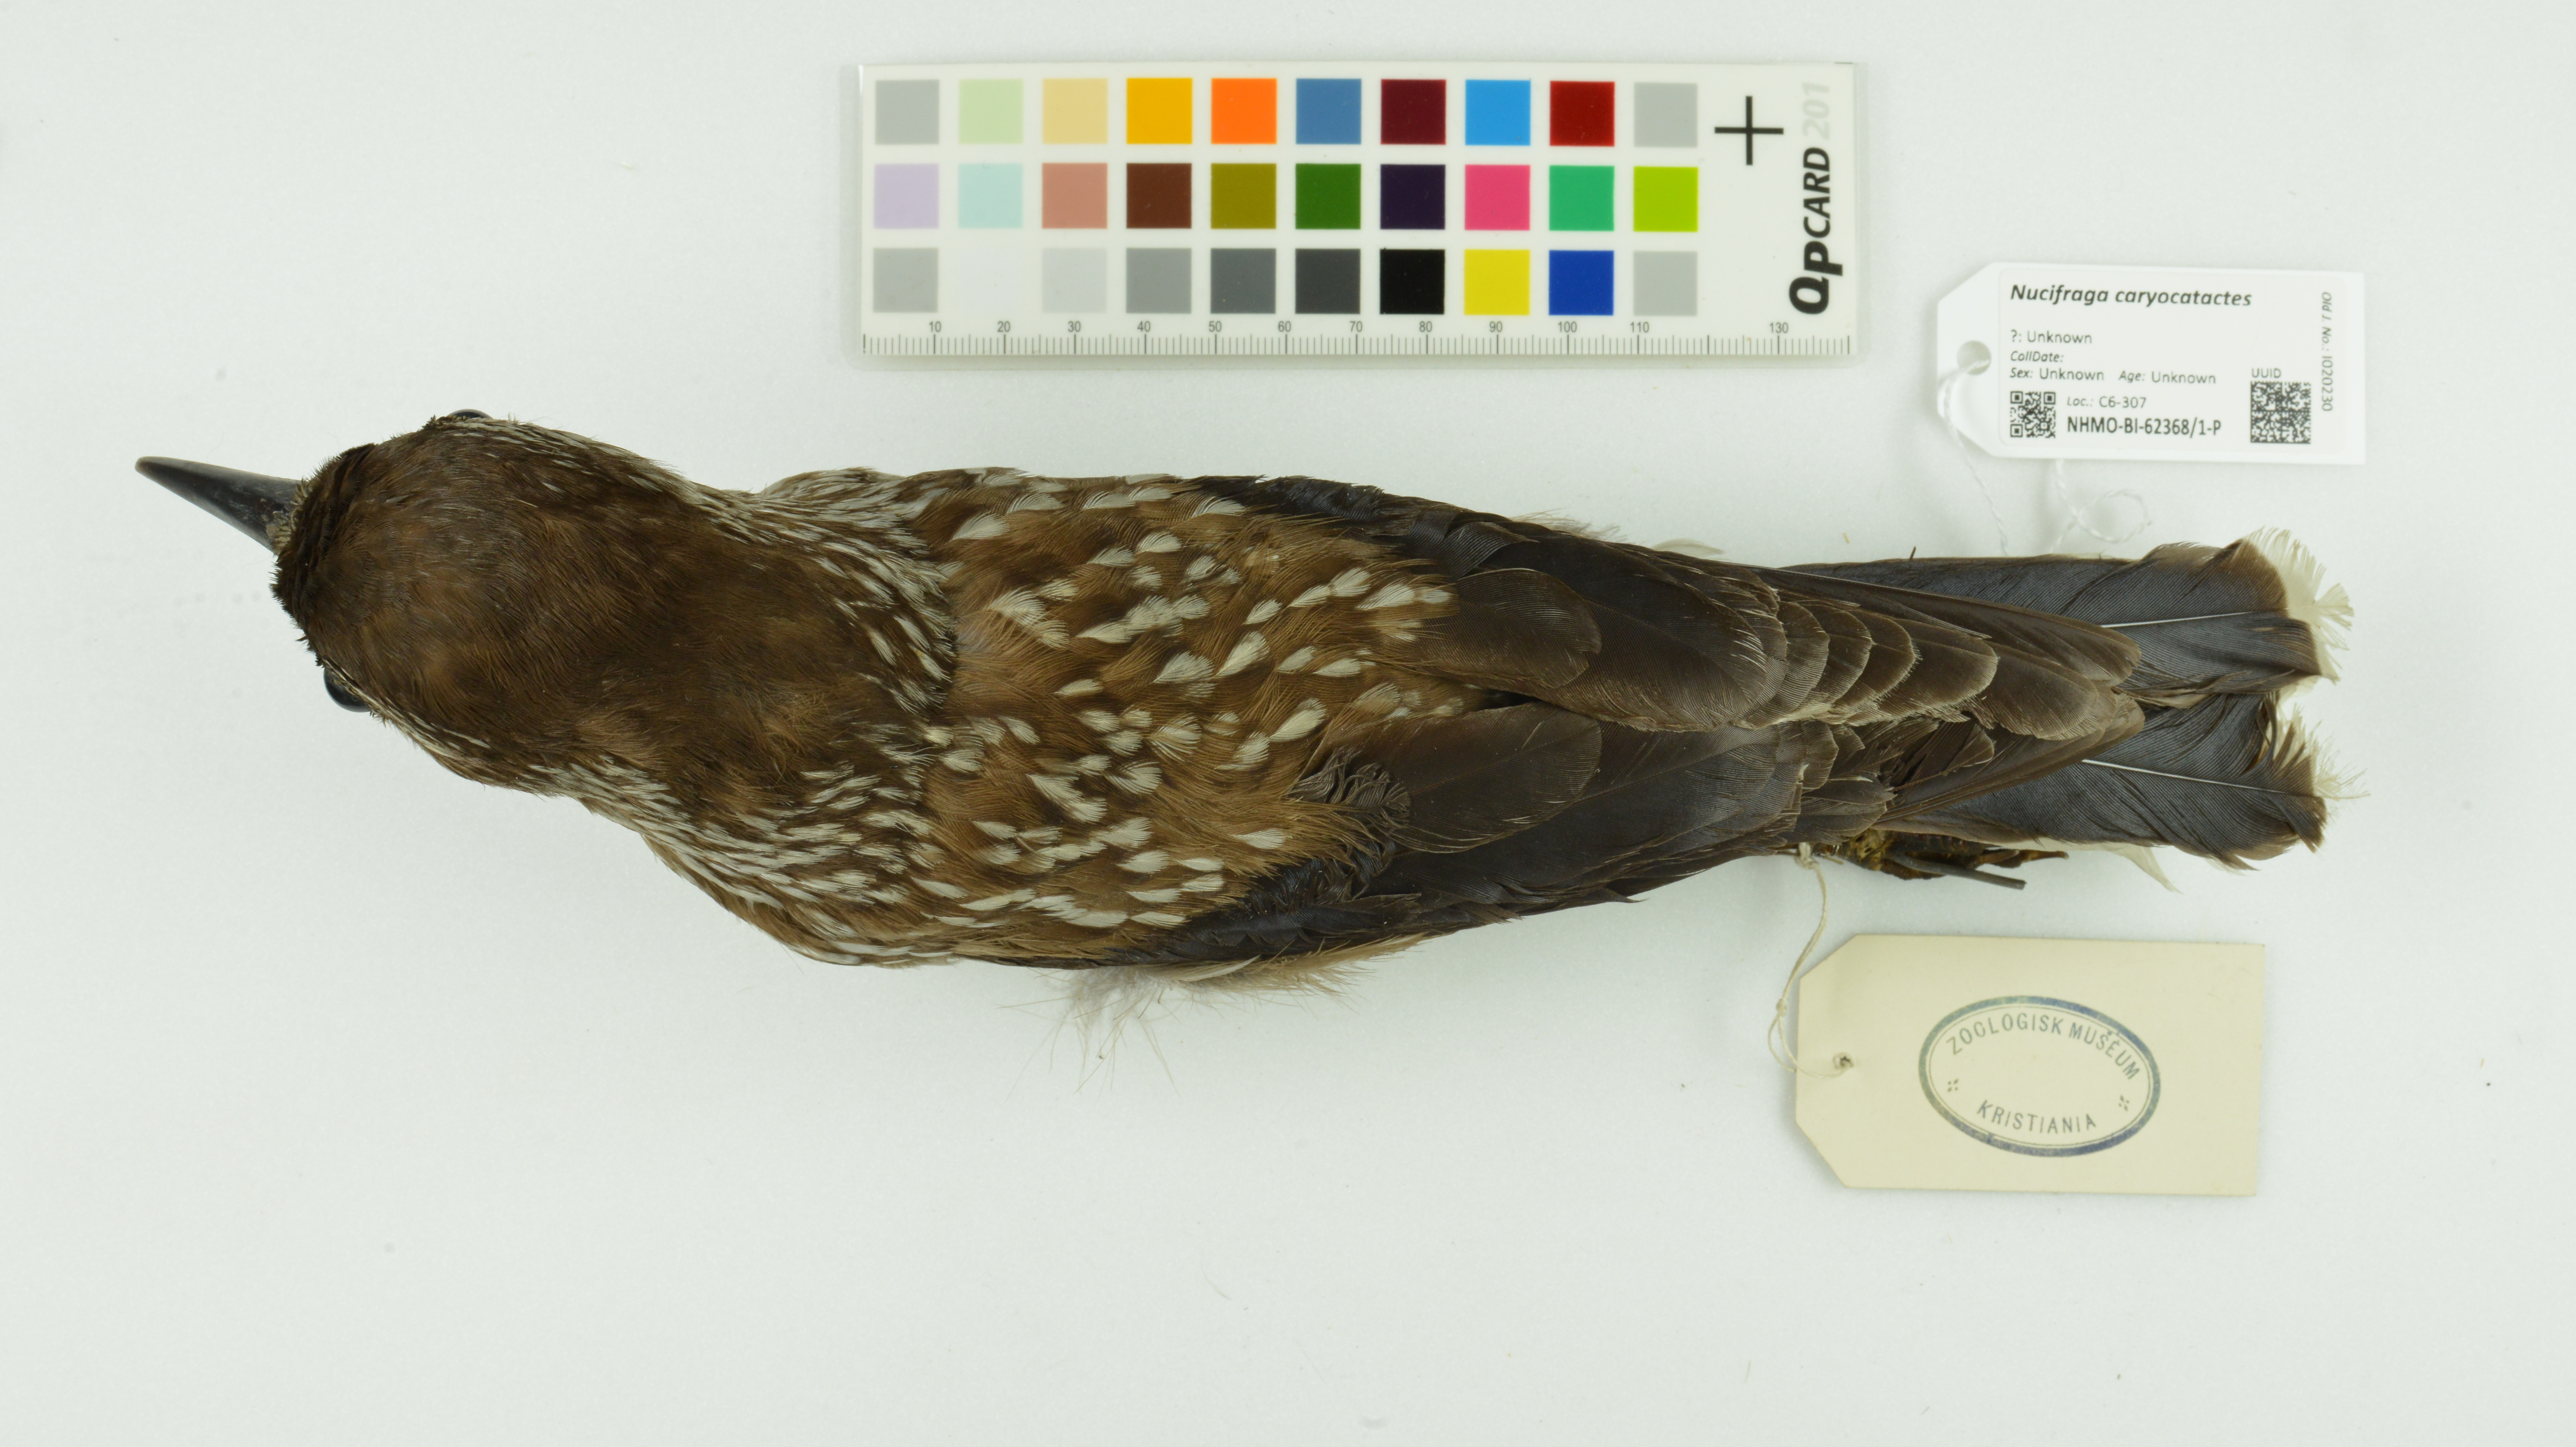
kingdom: Animalia
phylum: Chordata
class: Aves
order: Passeriformes
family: Corvidae
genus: Nucifraga
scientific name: Nucifraga caryocatactes
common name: Spotted nutcracker
